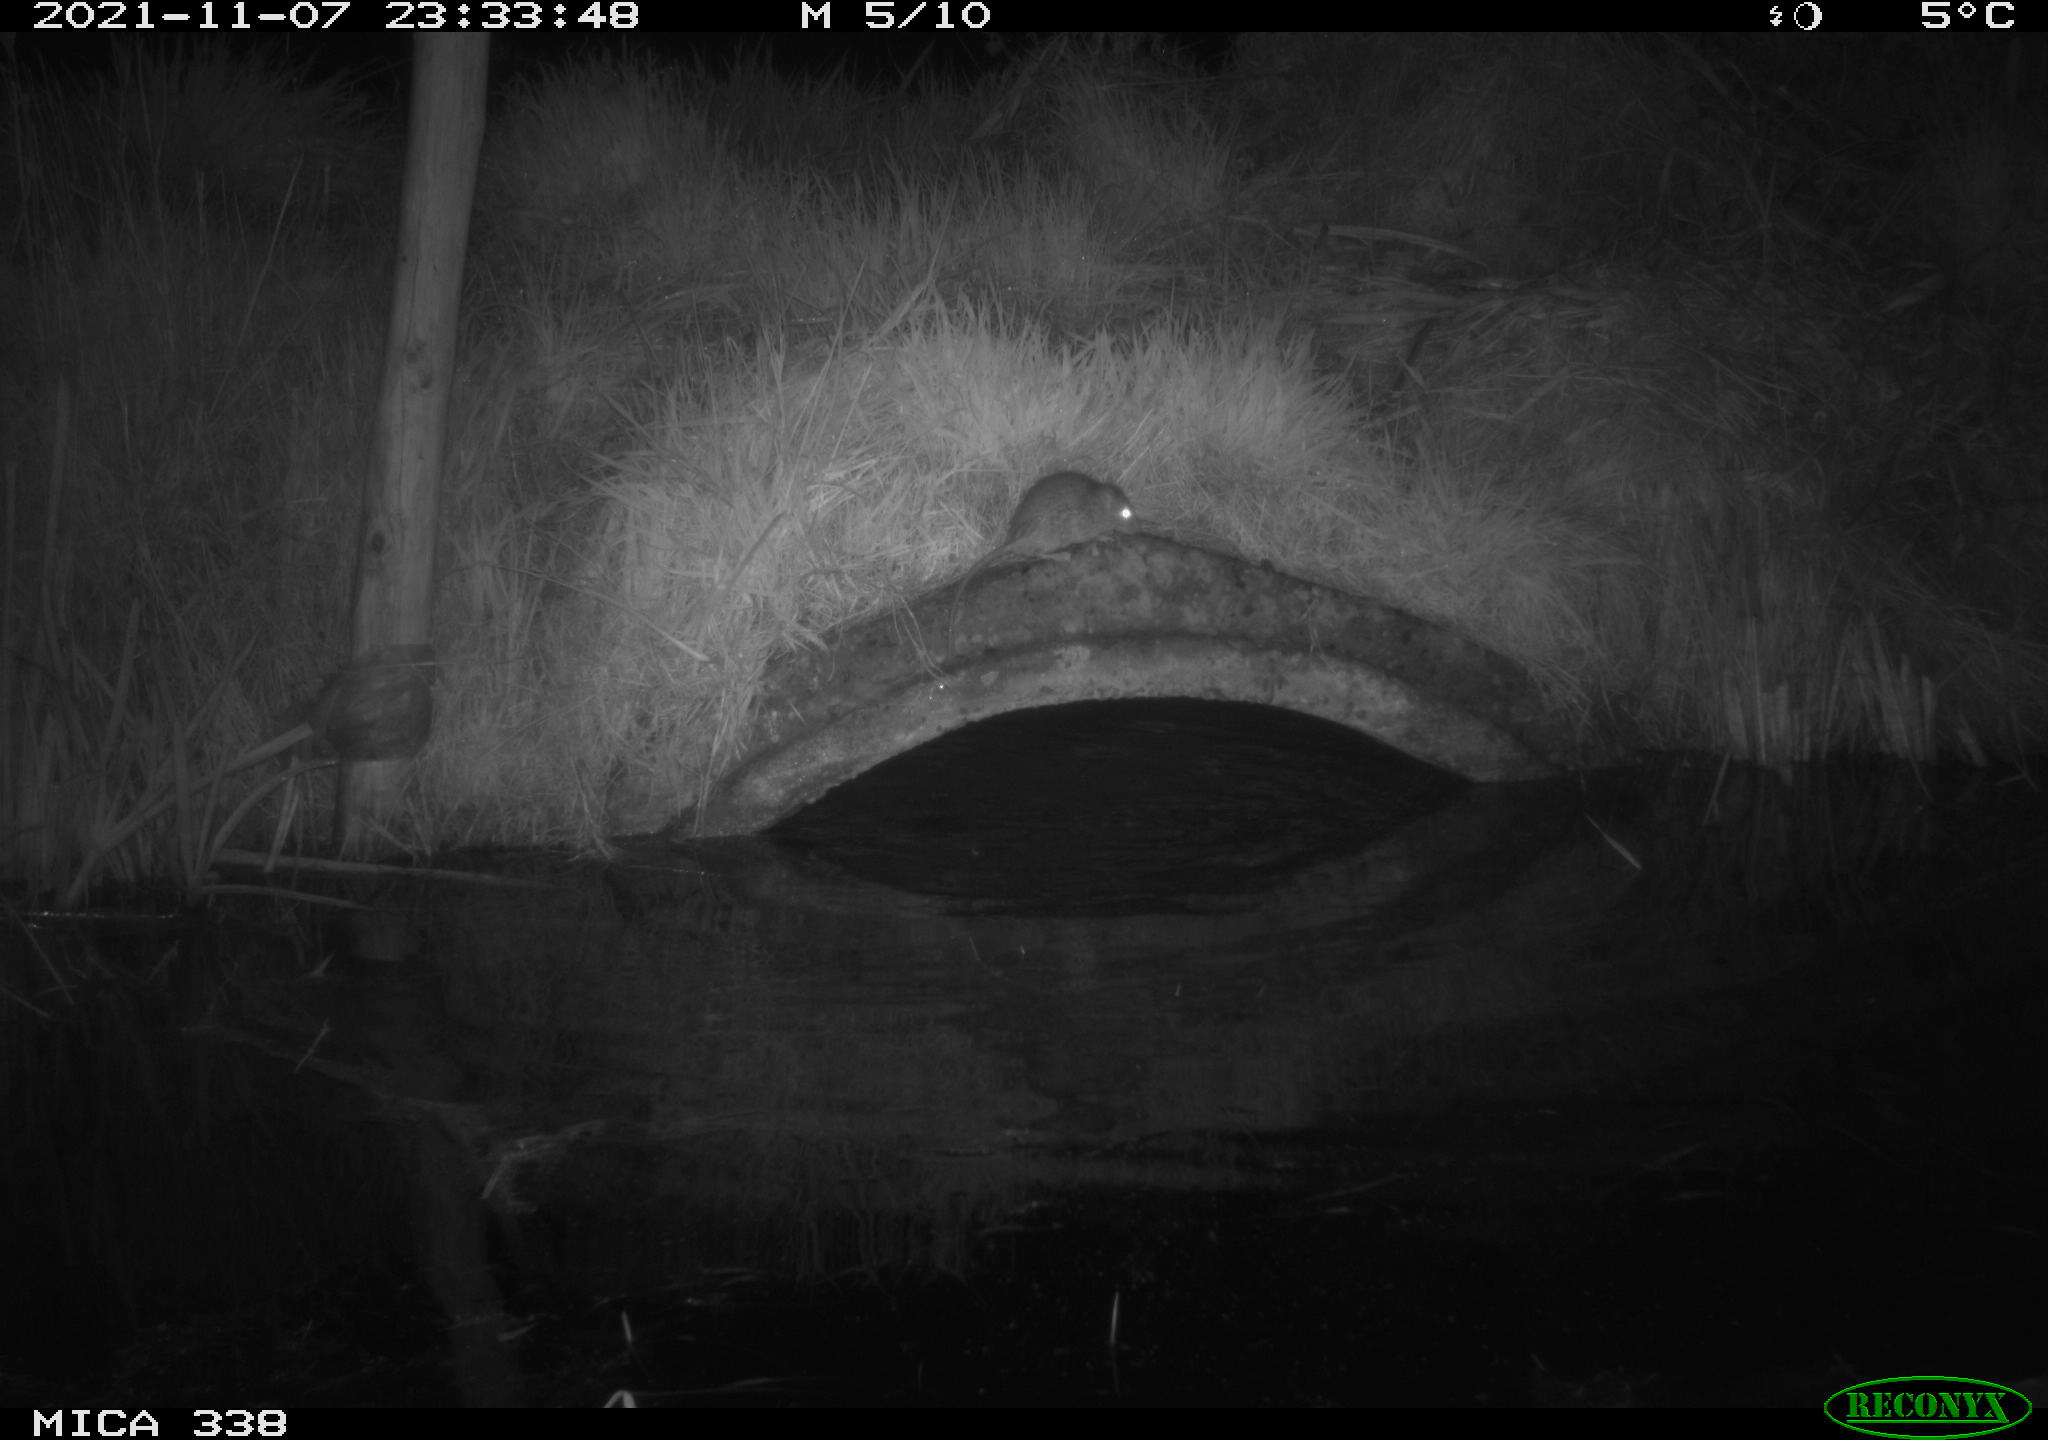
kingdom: Animalia
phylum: Chordata
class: Mammalia
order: Rodentia
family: Muridae
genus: Rattus
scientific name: Rattus norvegicus
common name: Brown rat
